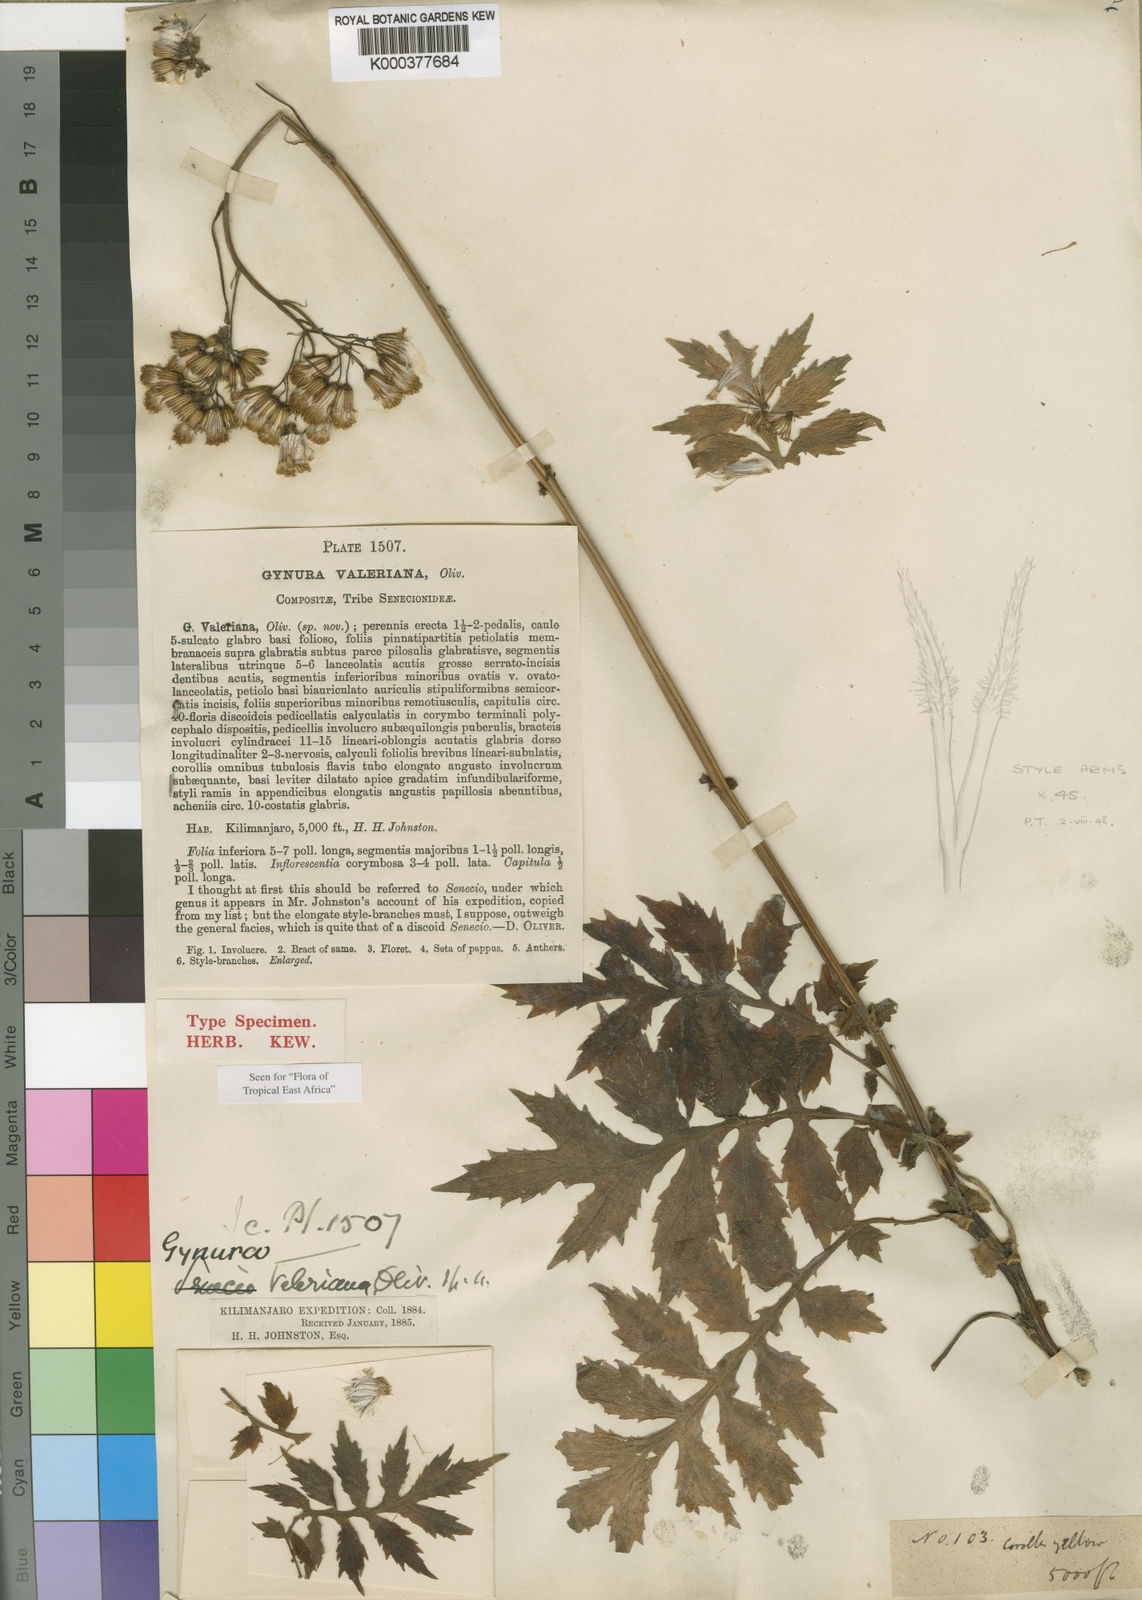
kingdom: Plantae
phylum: Tracheophyta
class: Magnoliopsida
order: Asterales
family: Asteraceae
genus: Gynura
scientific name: Gynura valeriana
